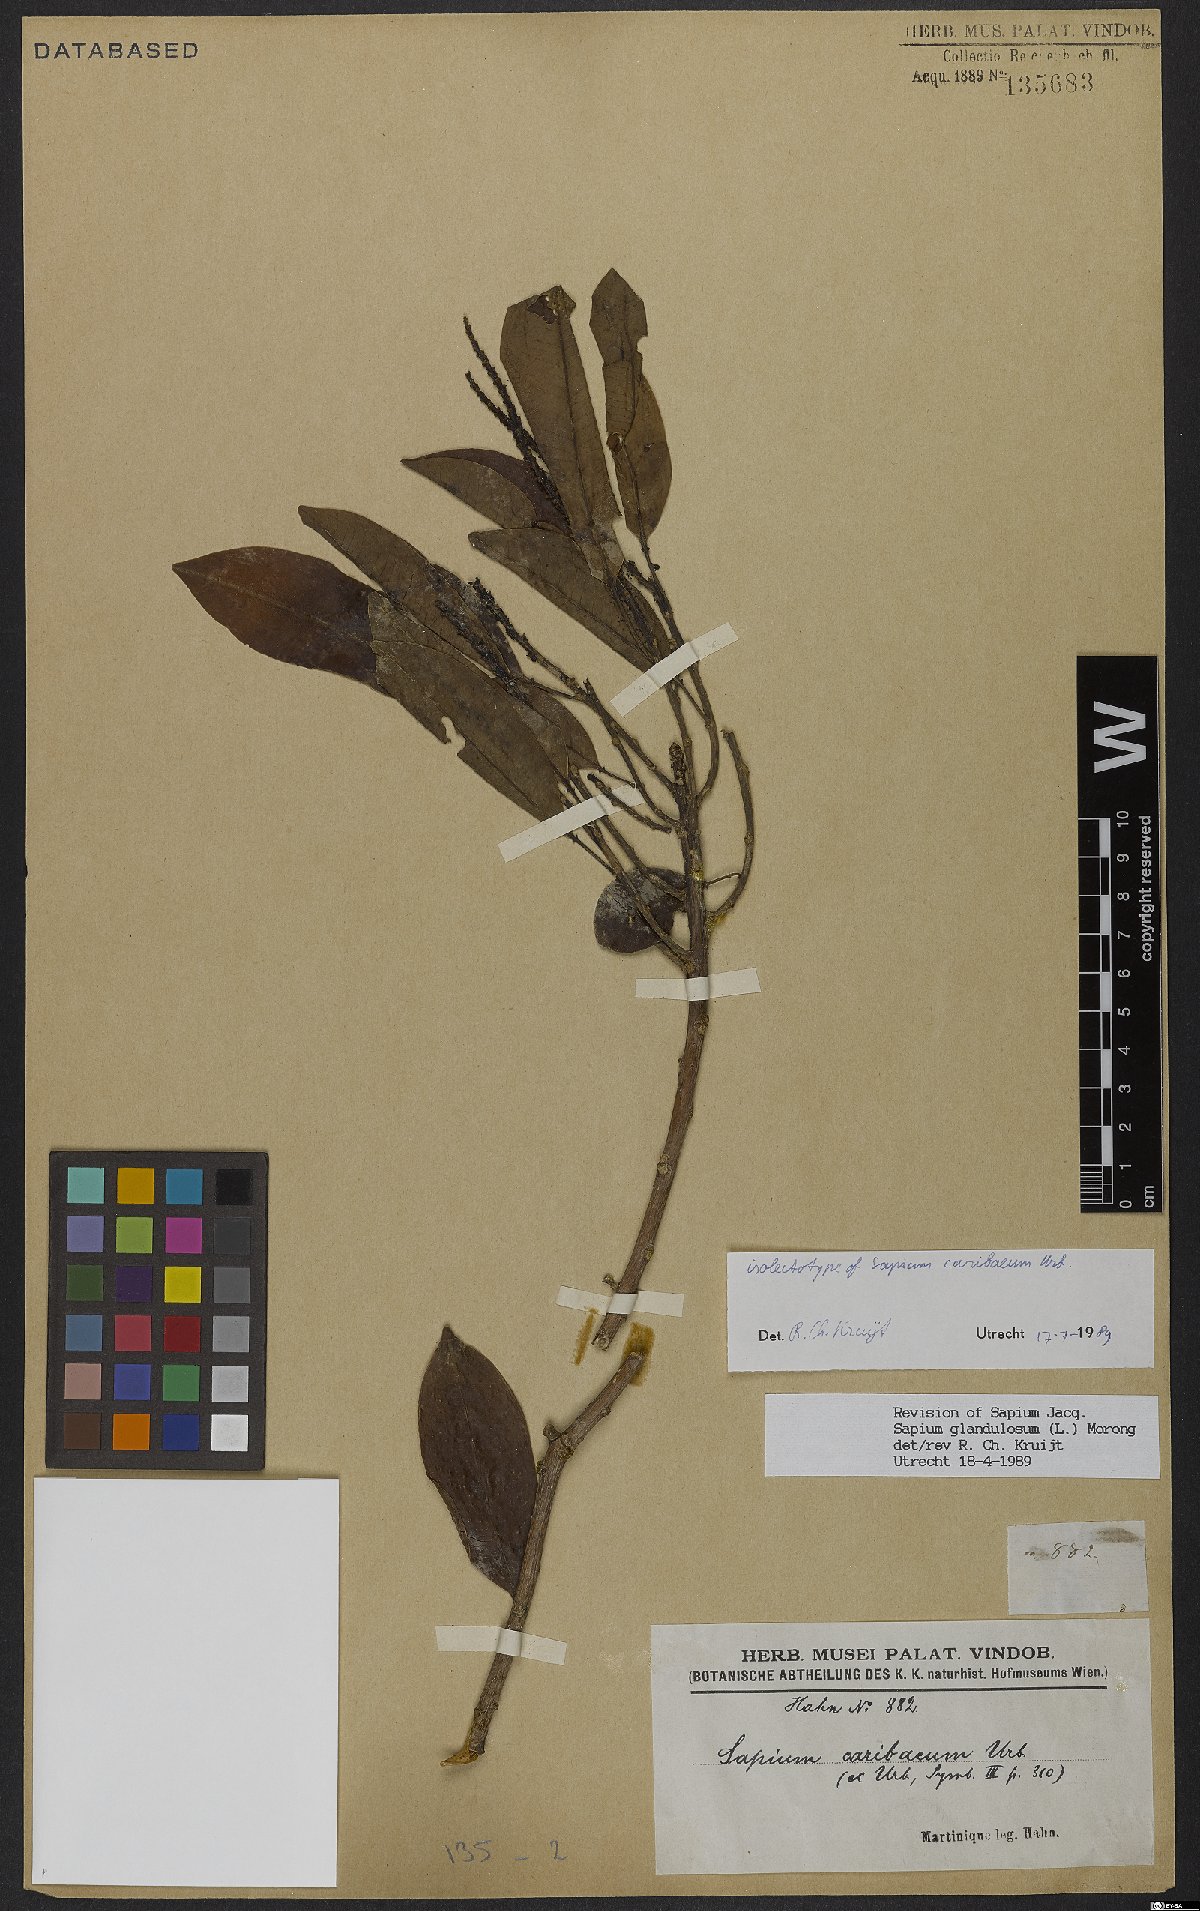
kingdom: Plantae
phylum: Tracheophyta
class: Magnoliopsida
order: Malpighiales
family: Euphorbiaceae
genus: Sapium
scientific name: Sapium glandulosum
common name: Milktree
